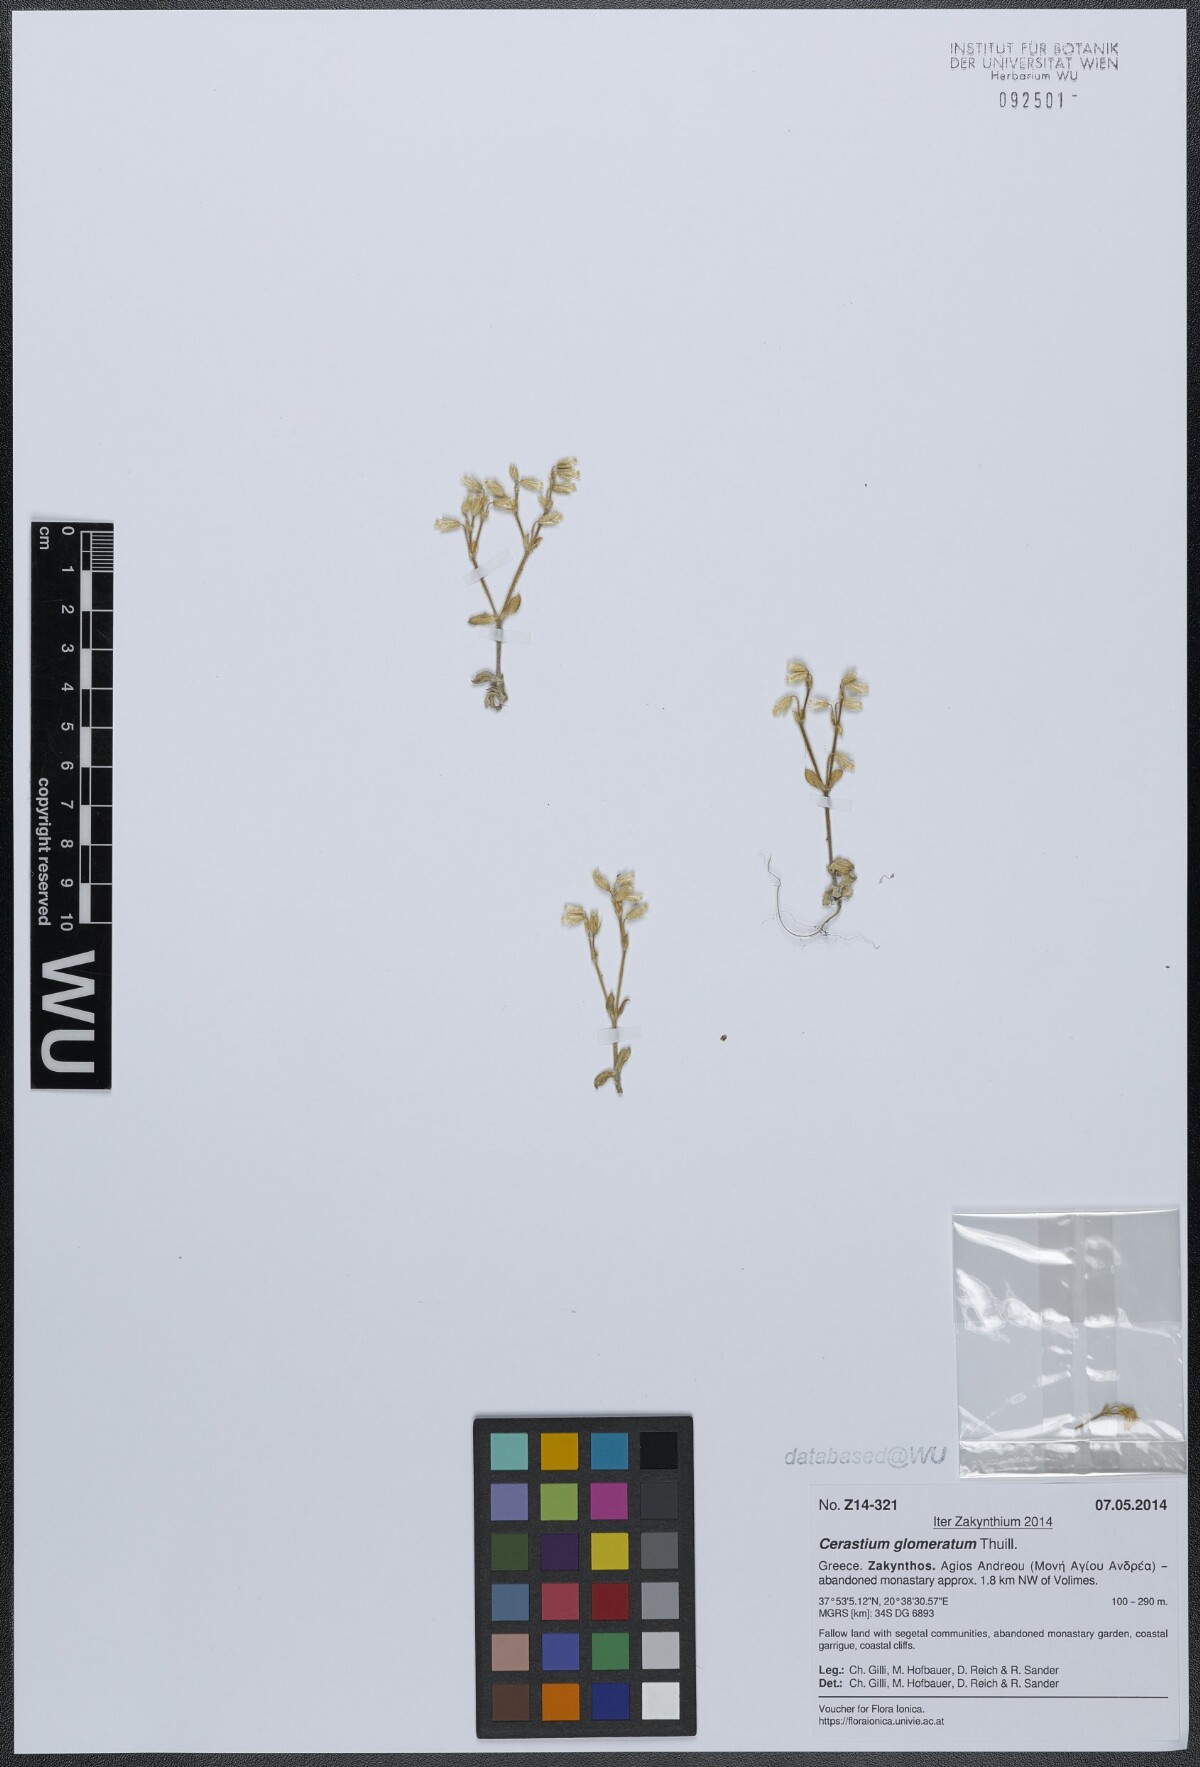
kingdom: Plantae
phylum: Tracheophyta
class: Magnoliopsida
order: Caryophyllales
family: Caryophyllaceae
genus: Cerastium
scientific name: Cerastium glomeratum
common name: Sticky chickweed
